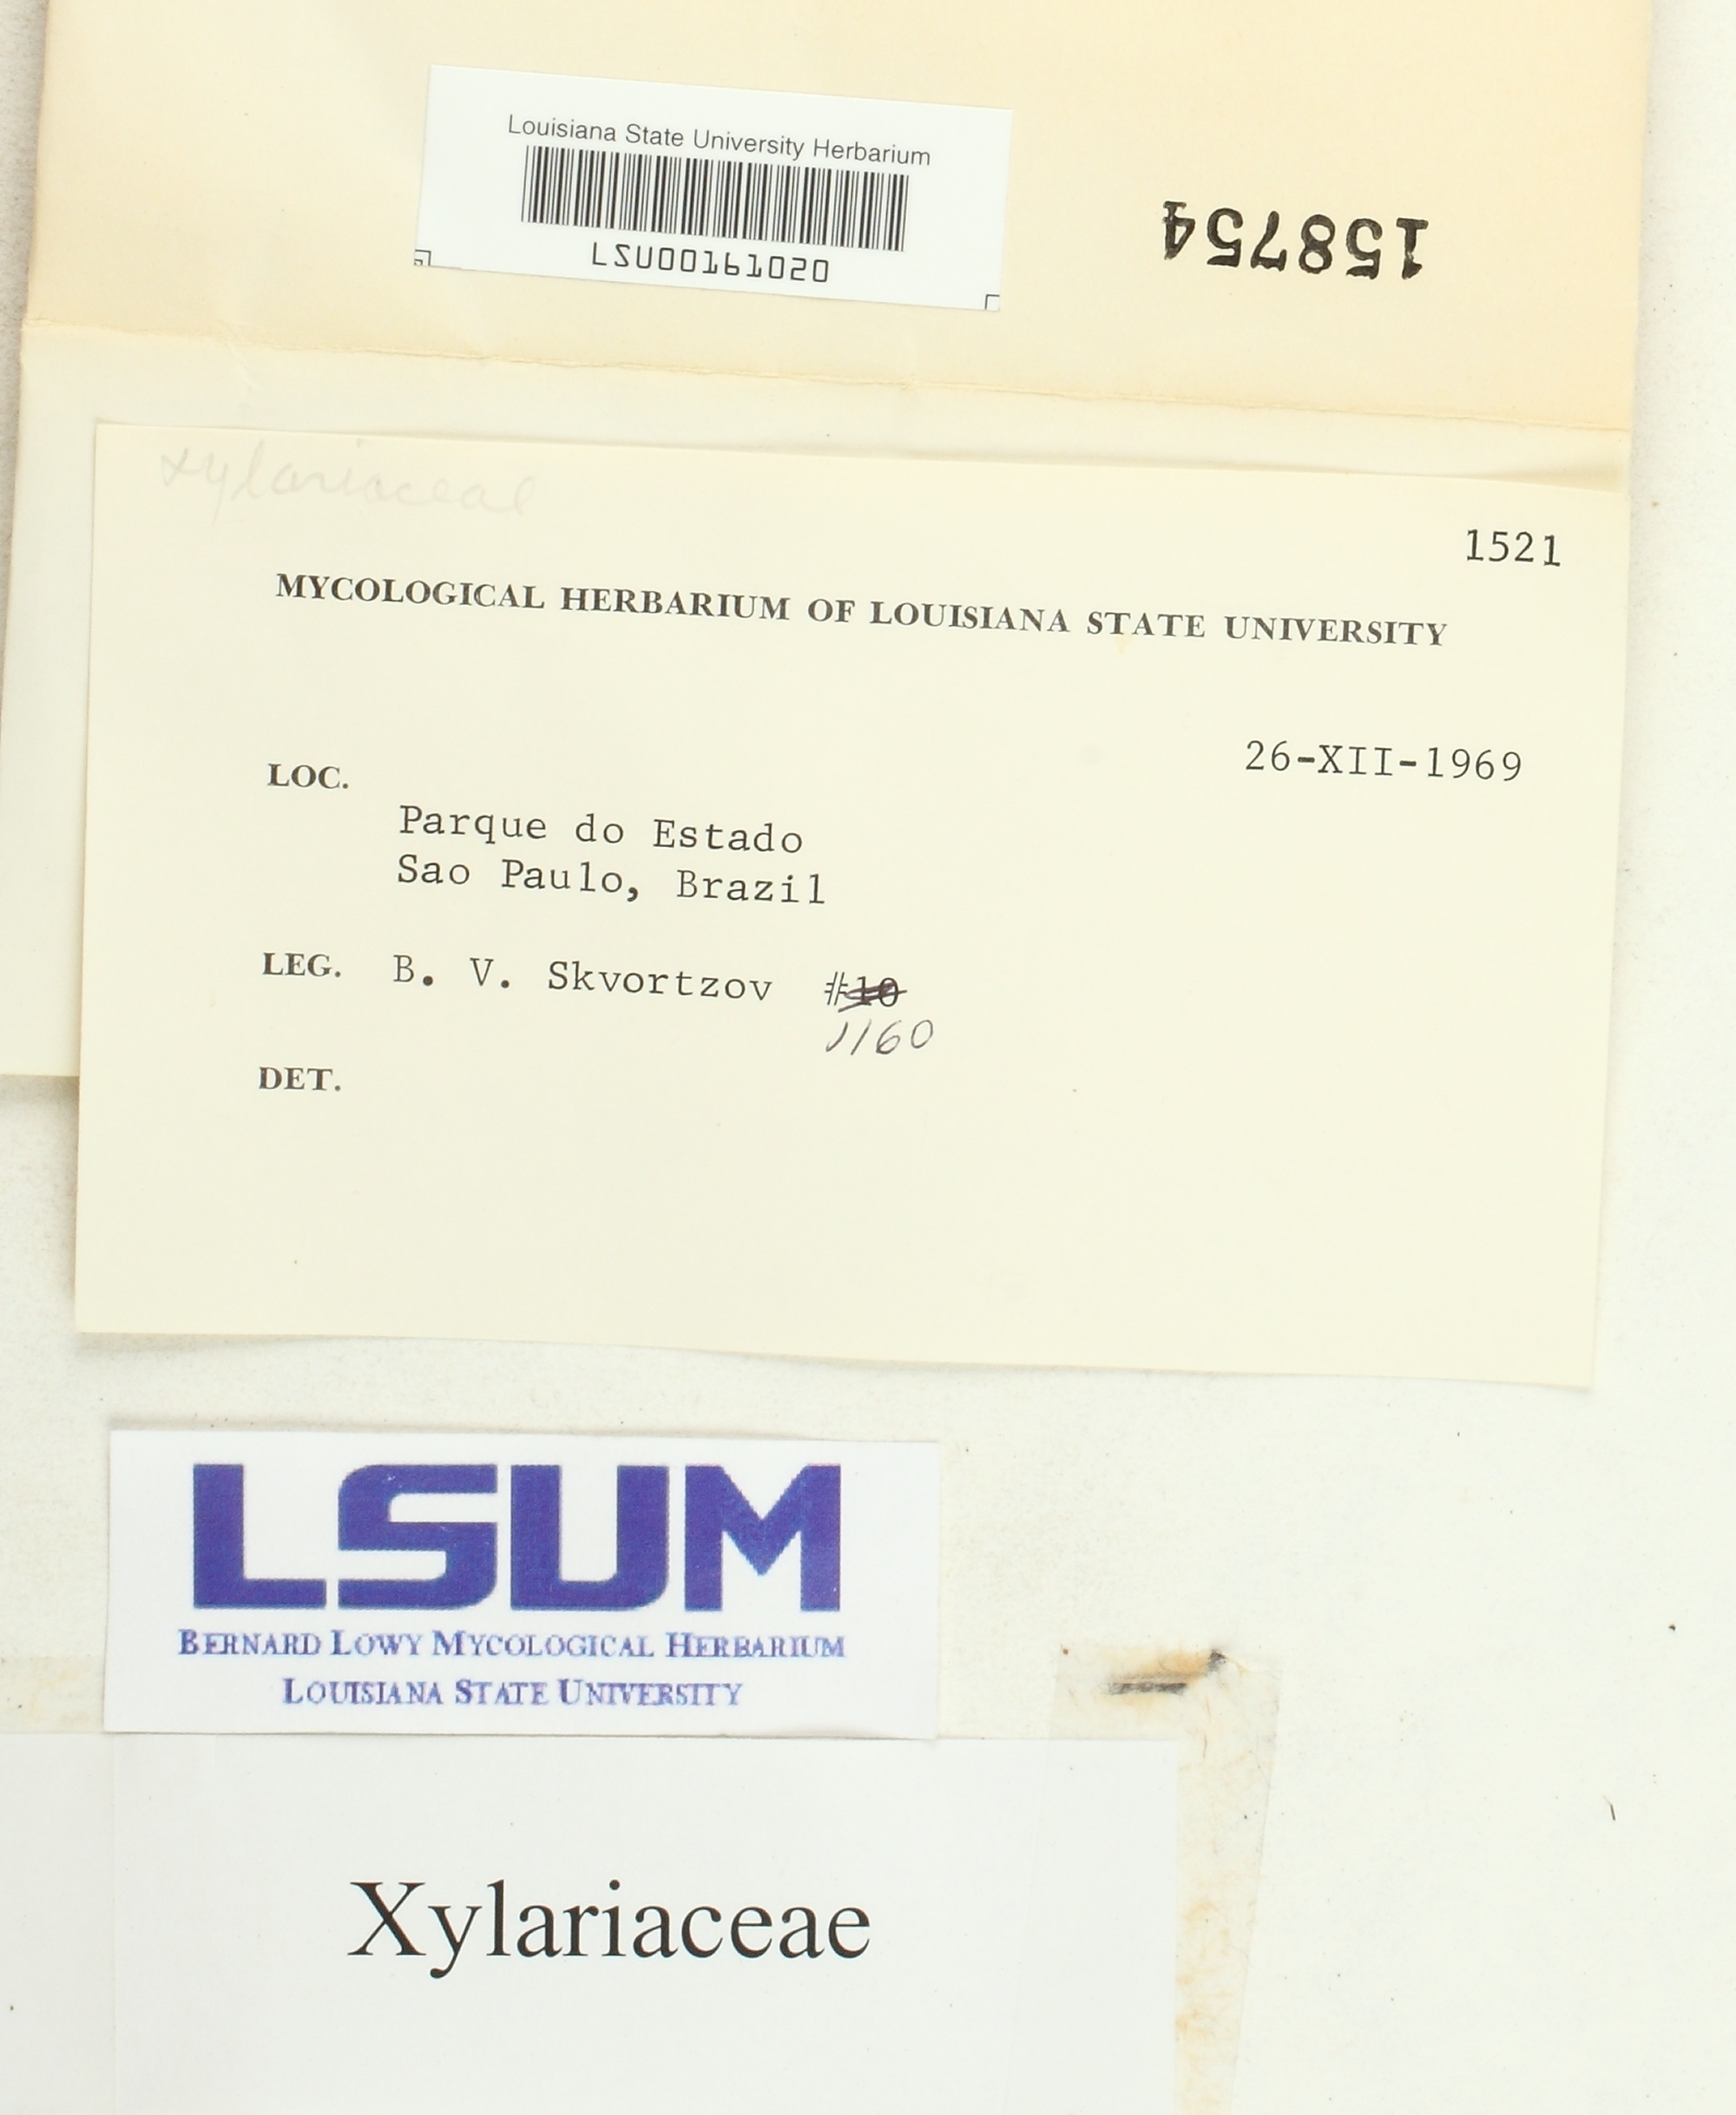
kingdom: Fungi
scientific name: Fungi
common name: Fungi
